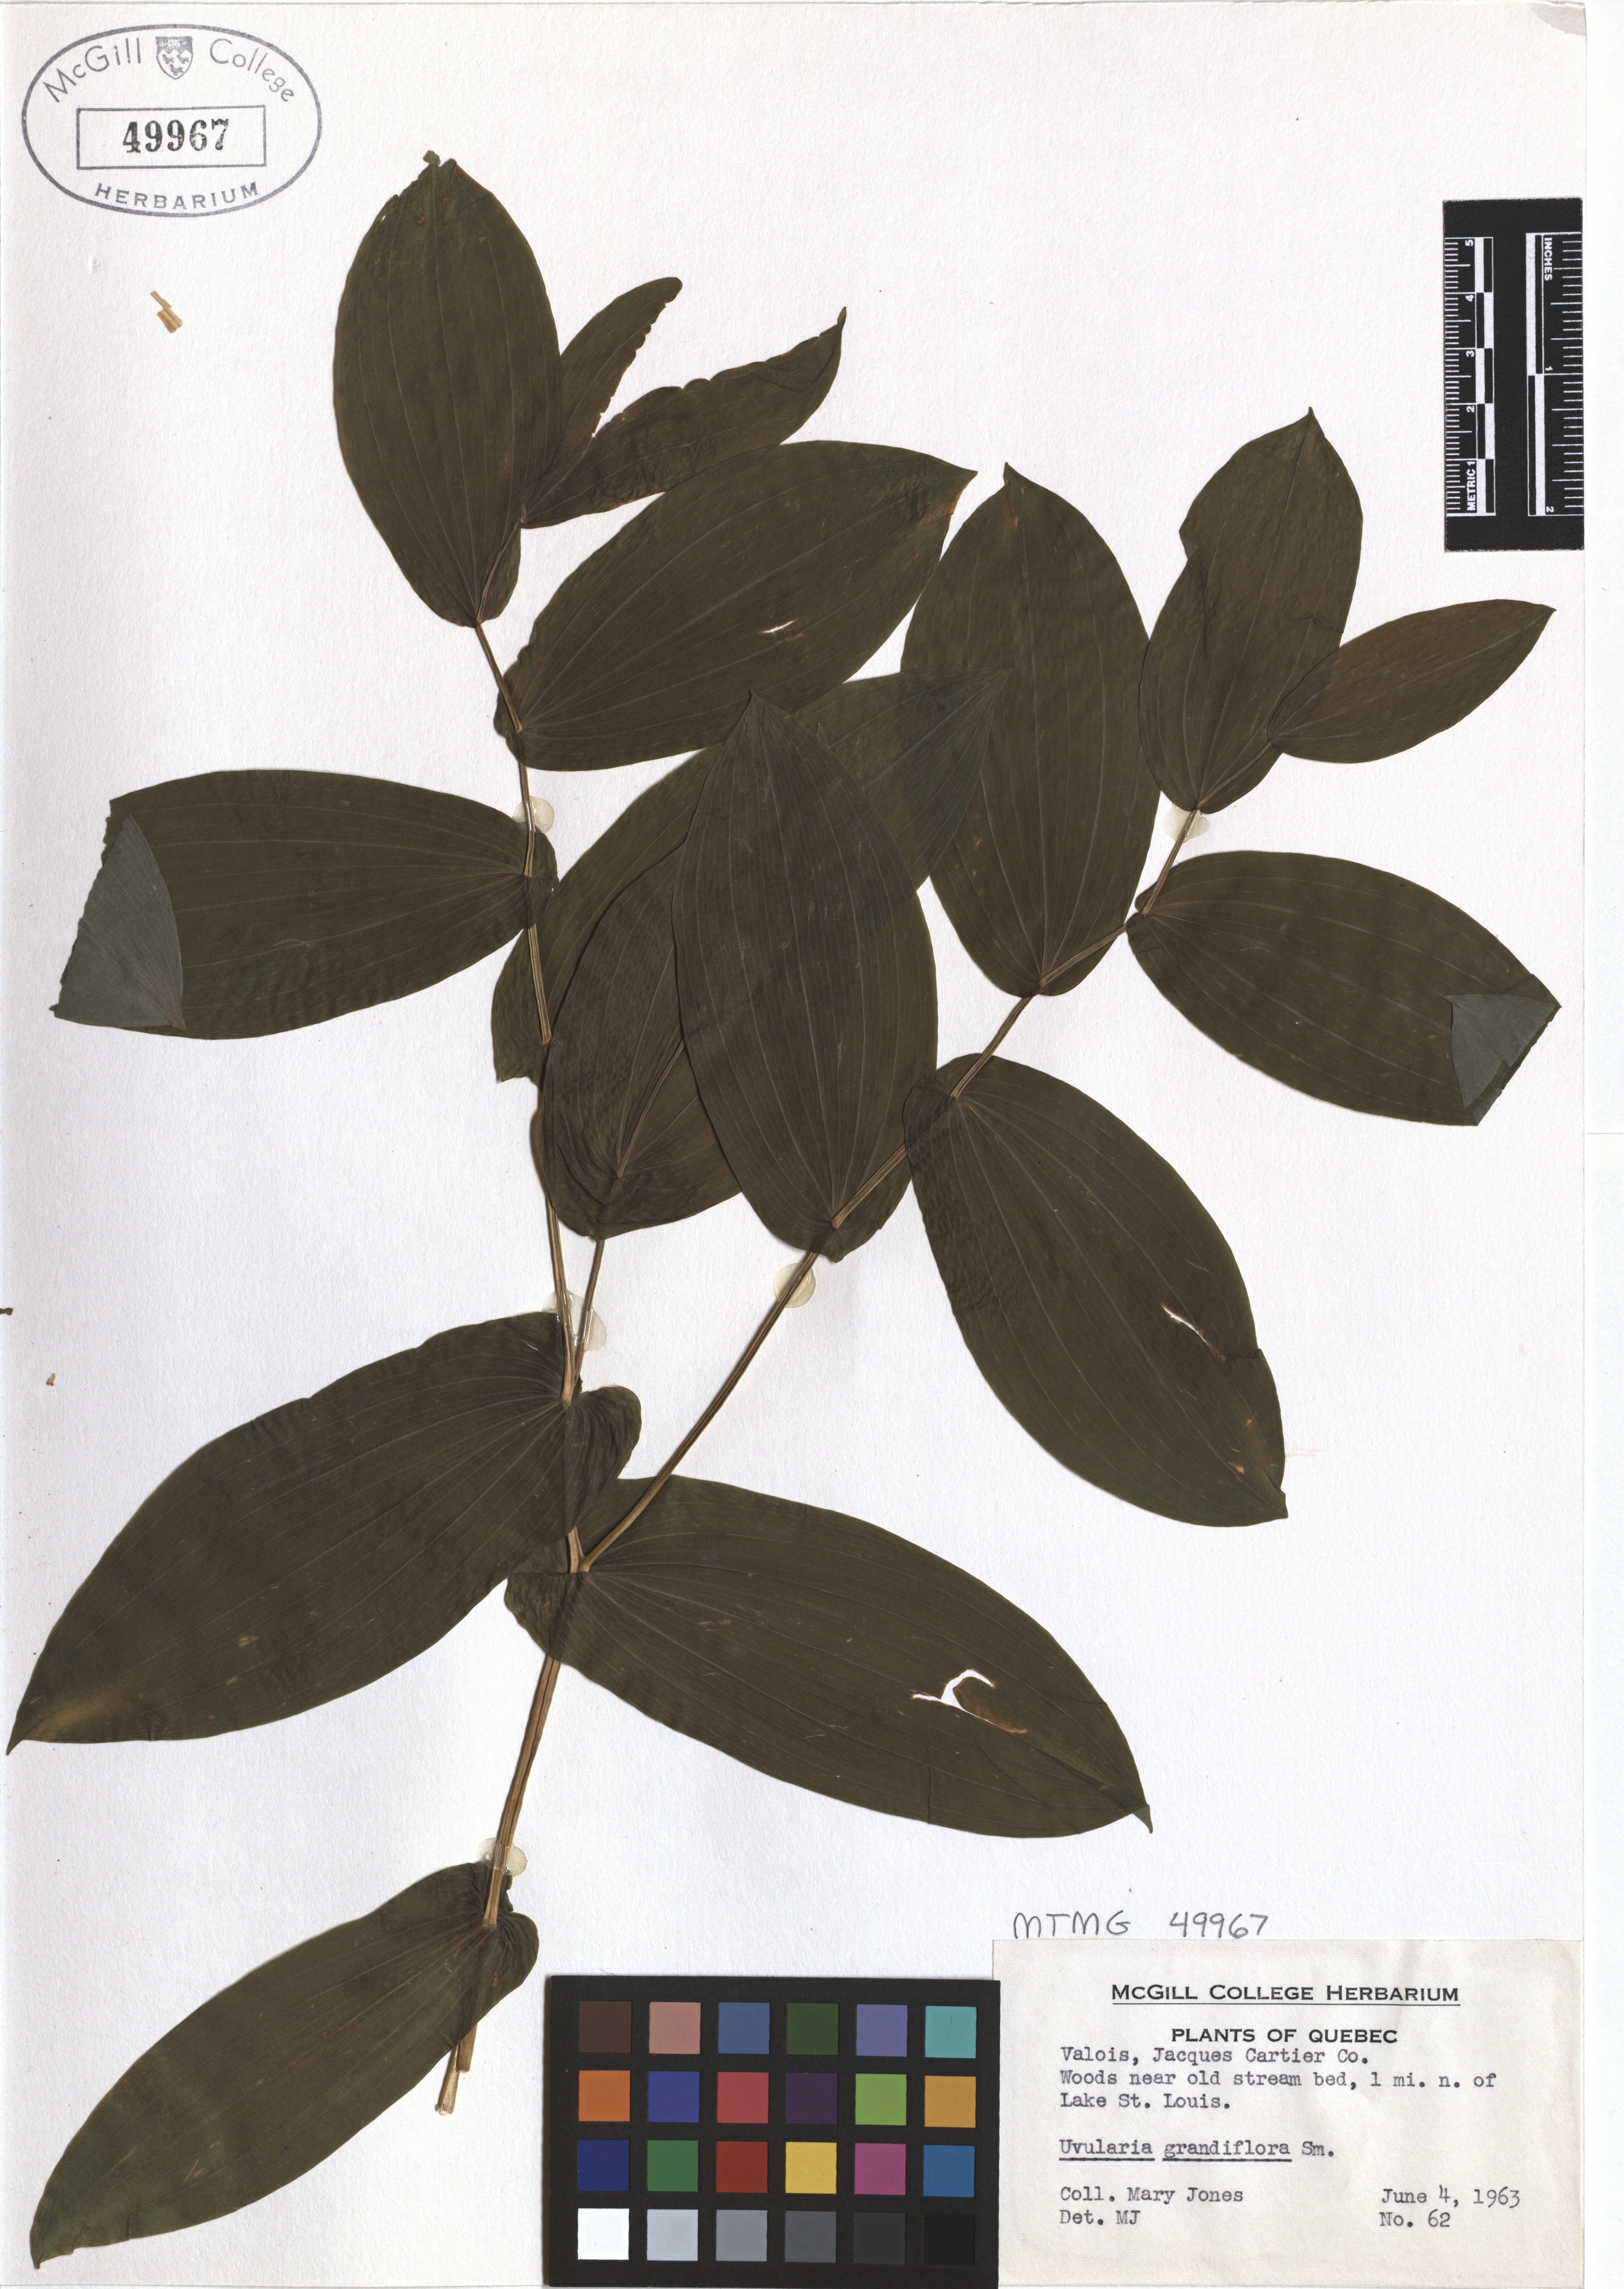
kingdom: Plantae
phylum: Tracheophyta
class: Liliopsida
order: Liliales
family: Colchicaceae
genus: Uvularia
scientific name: Uvularia grandiflora
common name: Bellwort
